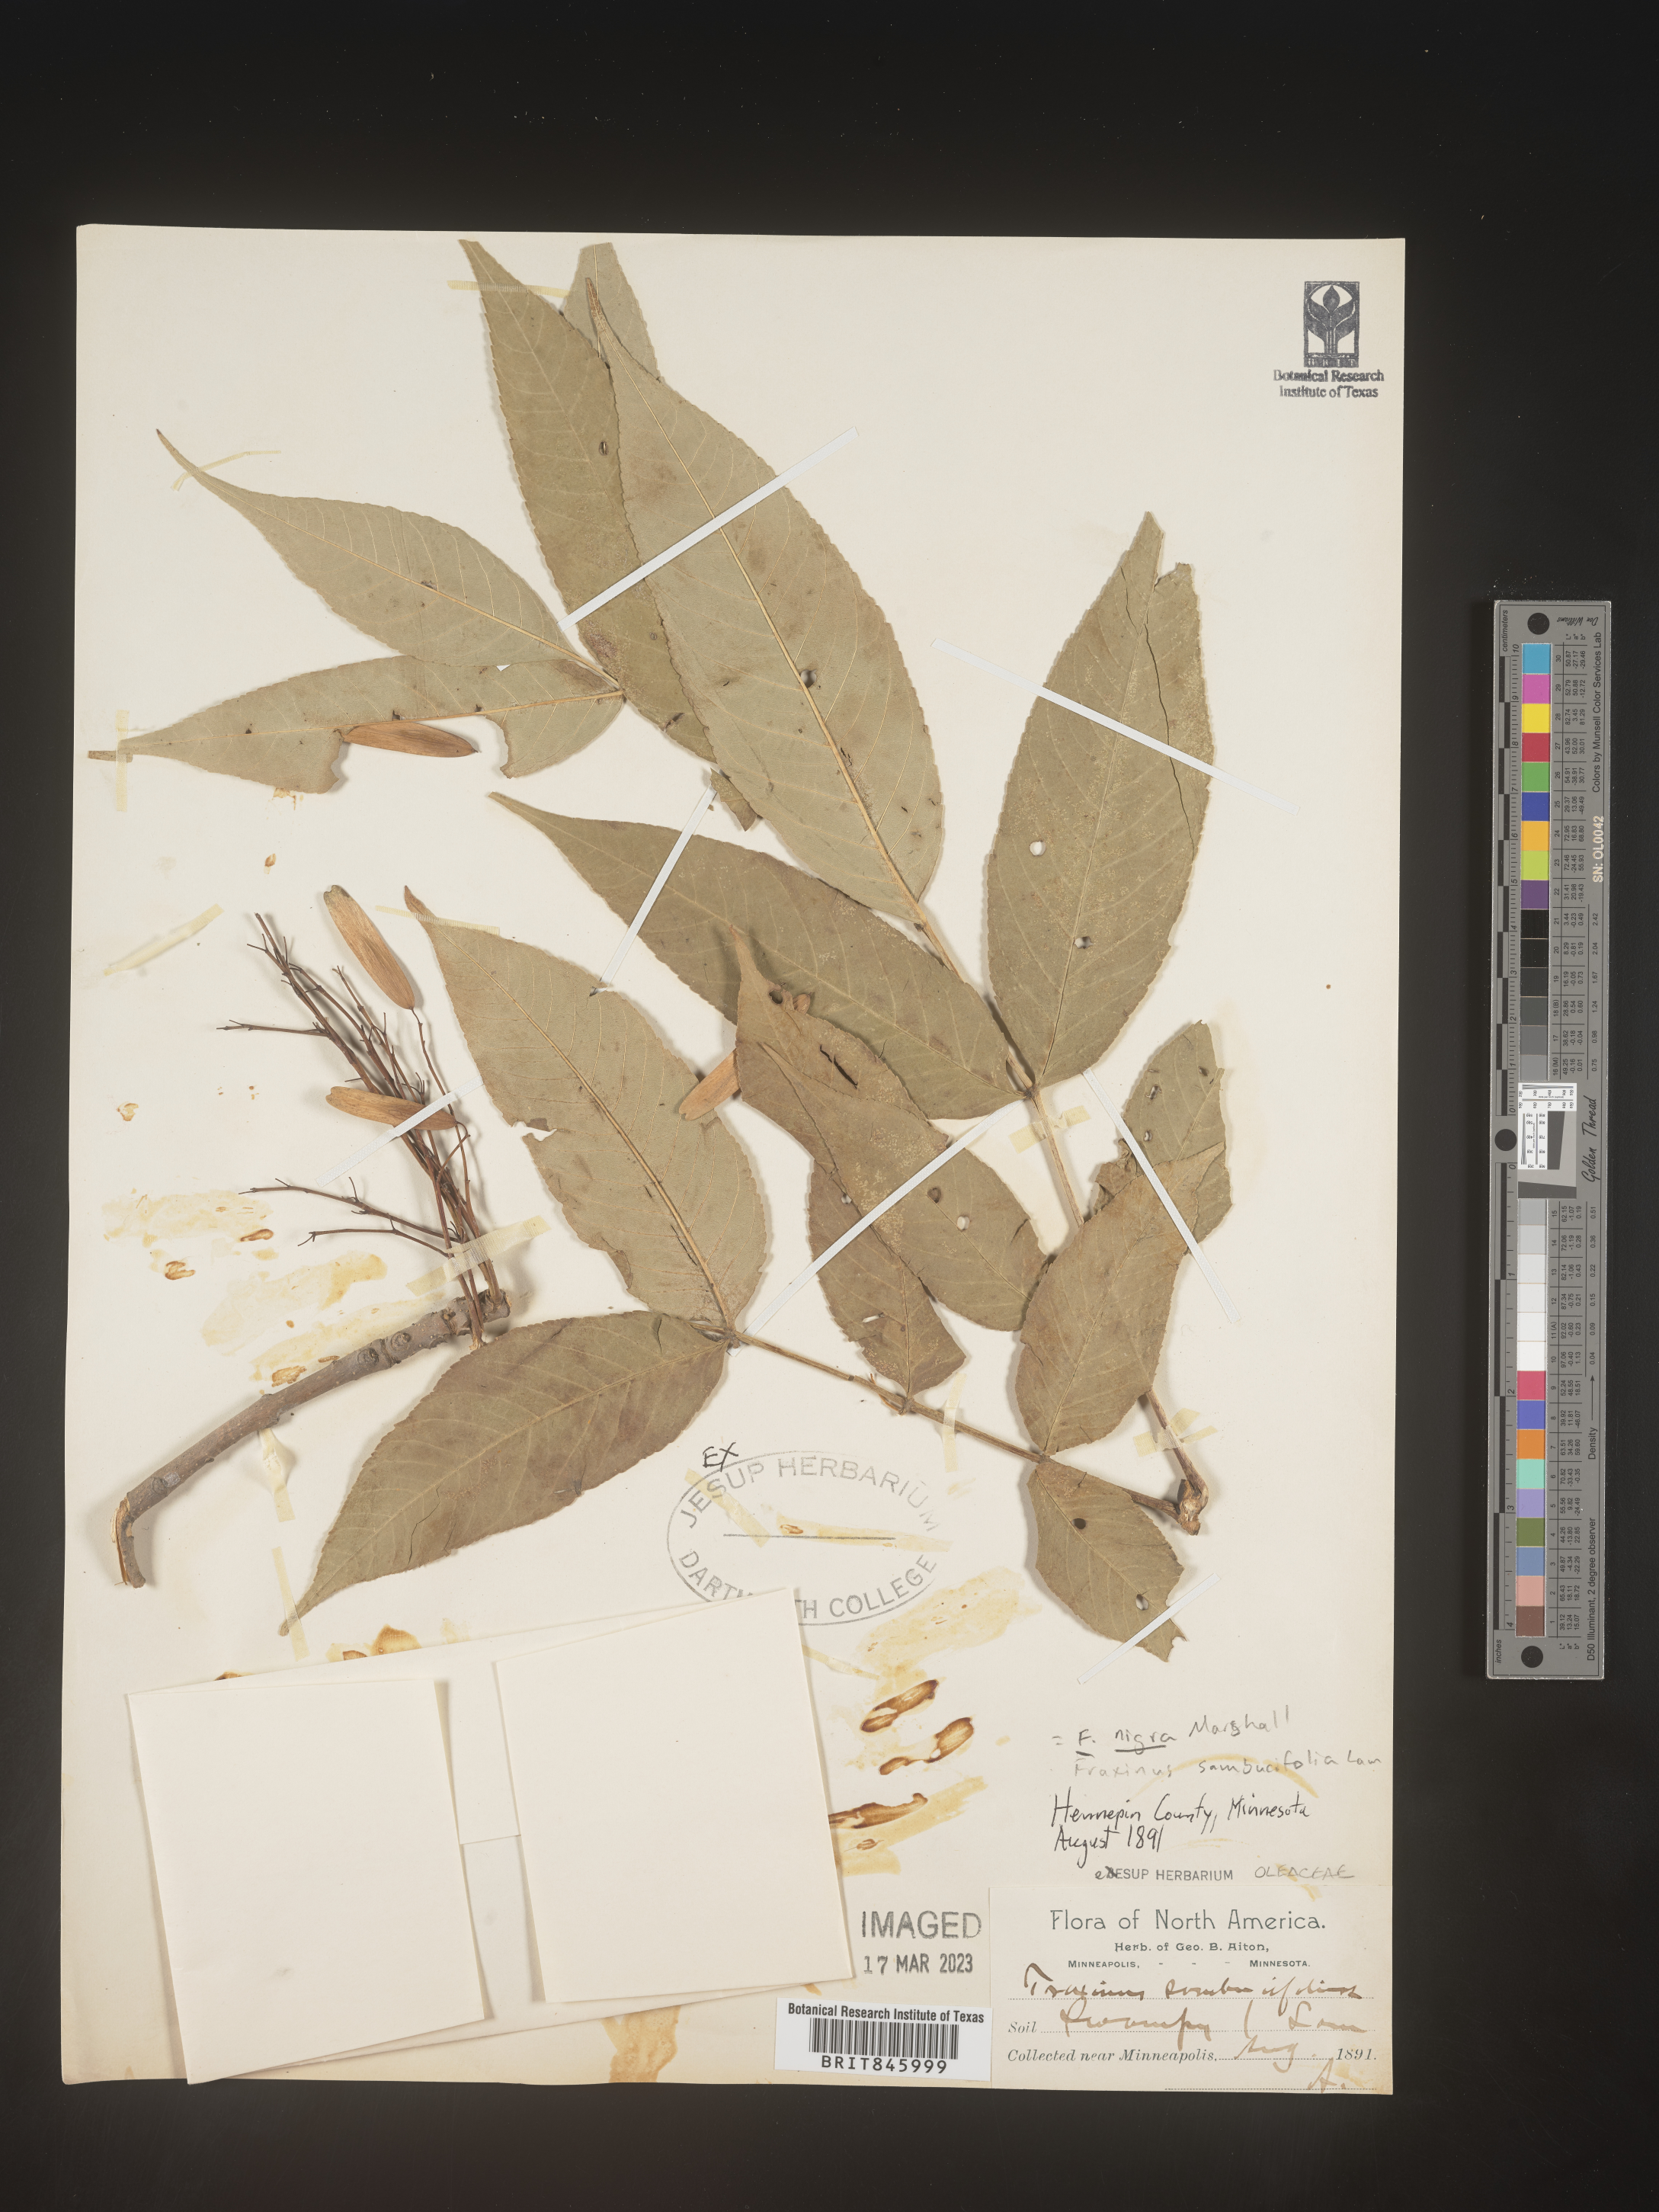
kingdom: Plantae
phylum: Tracheophyta
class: Magnoliopsida
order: Lamiales
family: Oleaceae
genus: Fraxinus
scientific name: Fraxinus nigra
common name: Black ash
